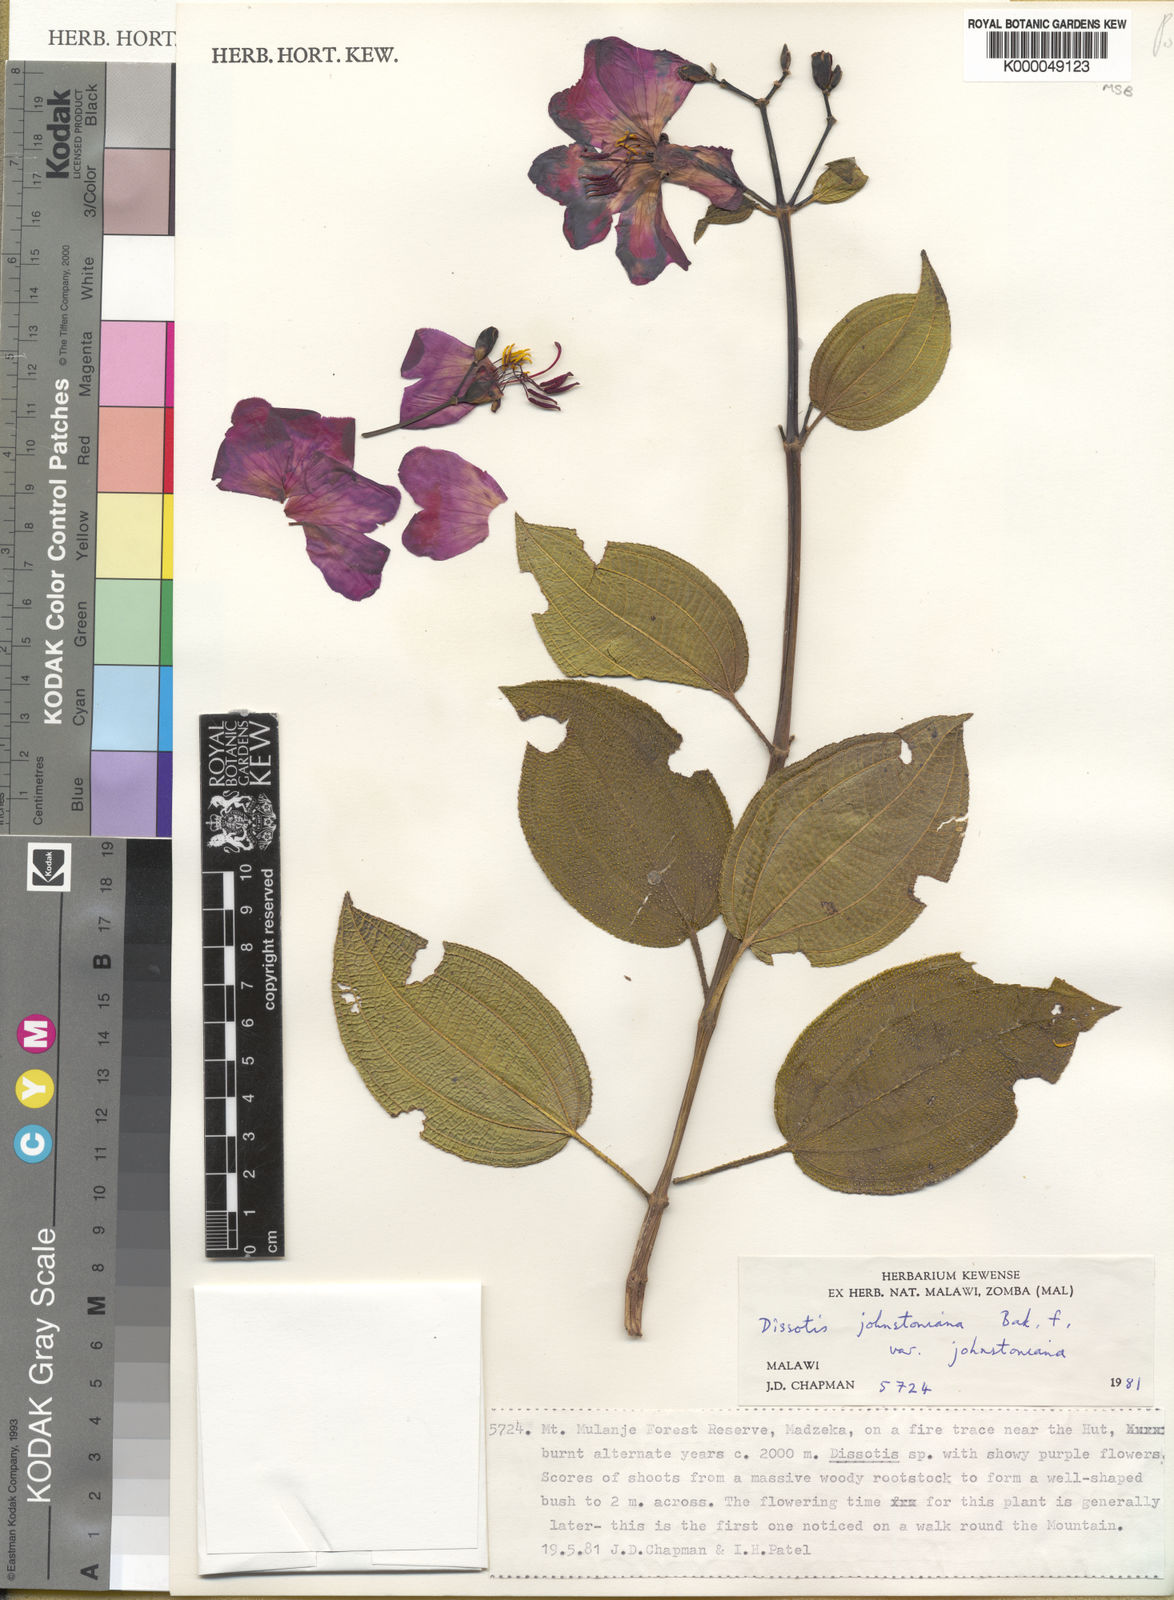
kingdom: Plantae
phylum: Tracheophyta
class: Magnoliopsida
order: Myrtales
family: Melastomataceae
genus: Dissotidendron
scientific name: Dissotidendron johnstonianum
